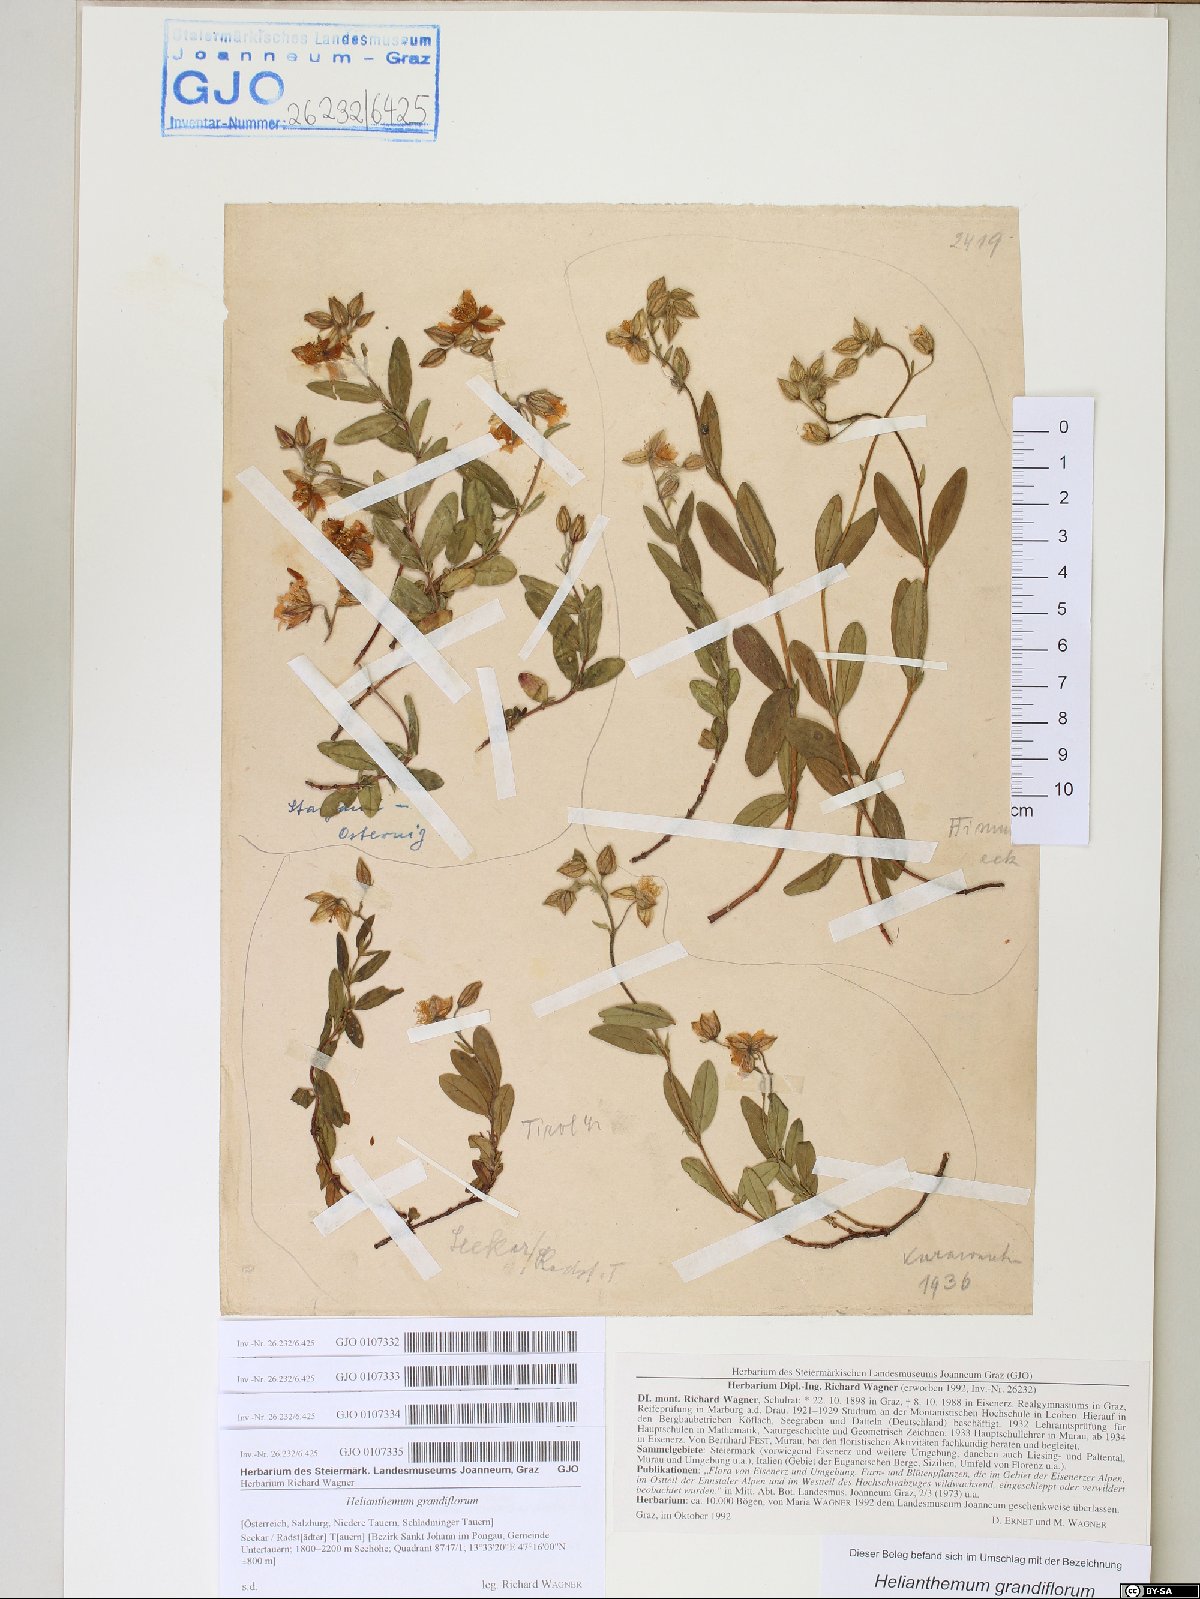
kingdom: Plantae
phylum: Tracheophyta
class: Magnoliopsida
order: Malvales
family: Cistaceae
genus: Helianthemum
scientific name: Helianthemum nummularium
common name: Common rock-rose
